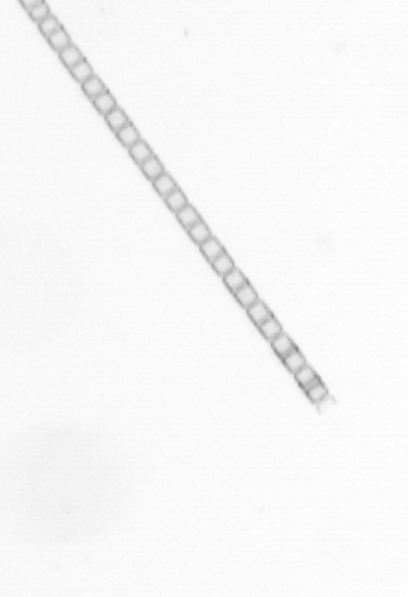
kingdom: Chromista
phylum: Ochrophyta
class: Bacillariophyceae
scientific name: Bacillariophyceae
